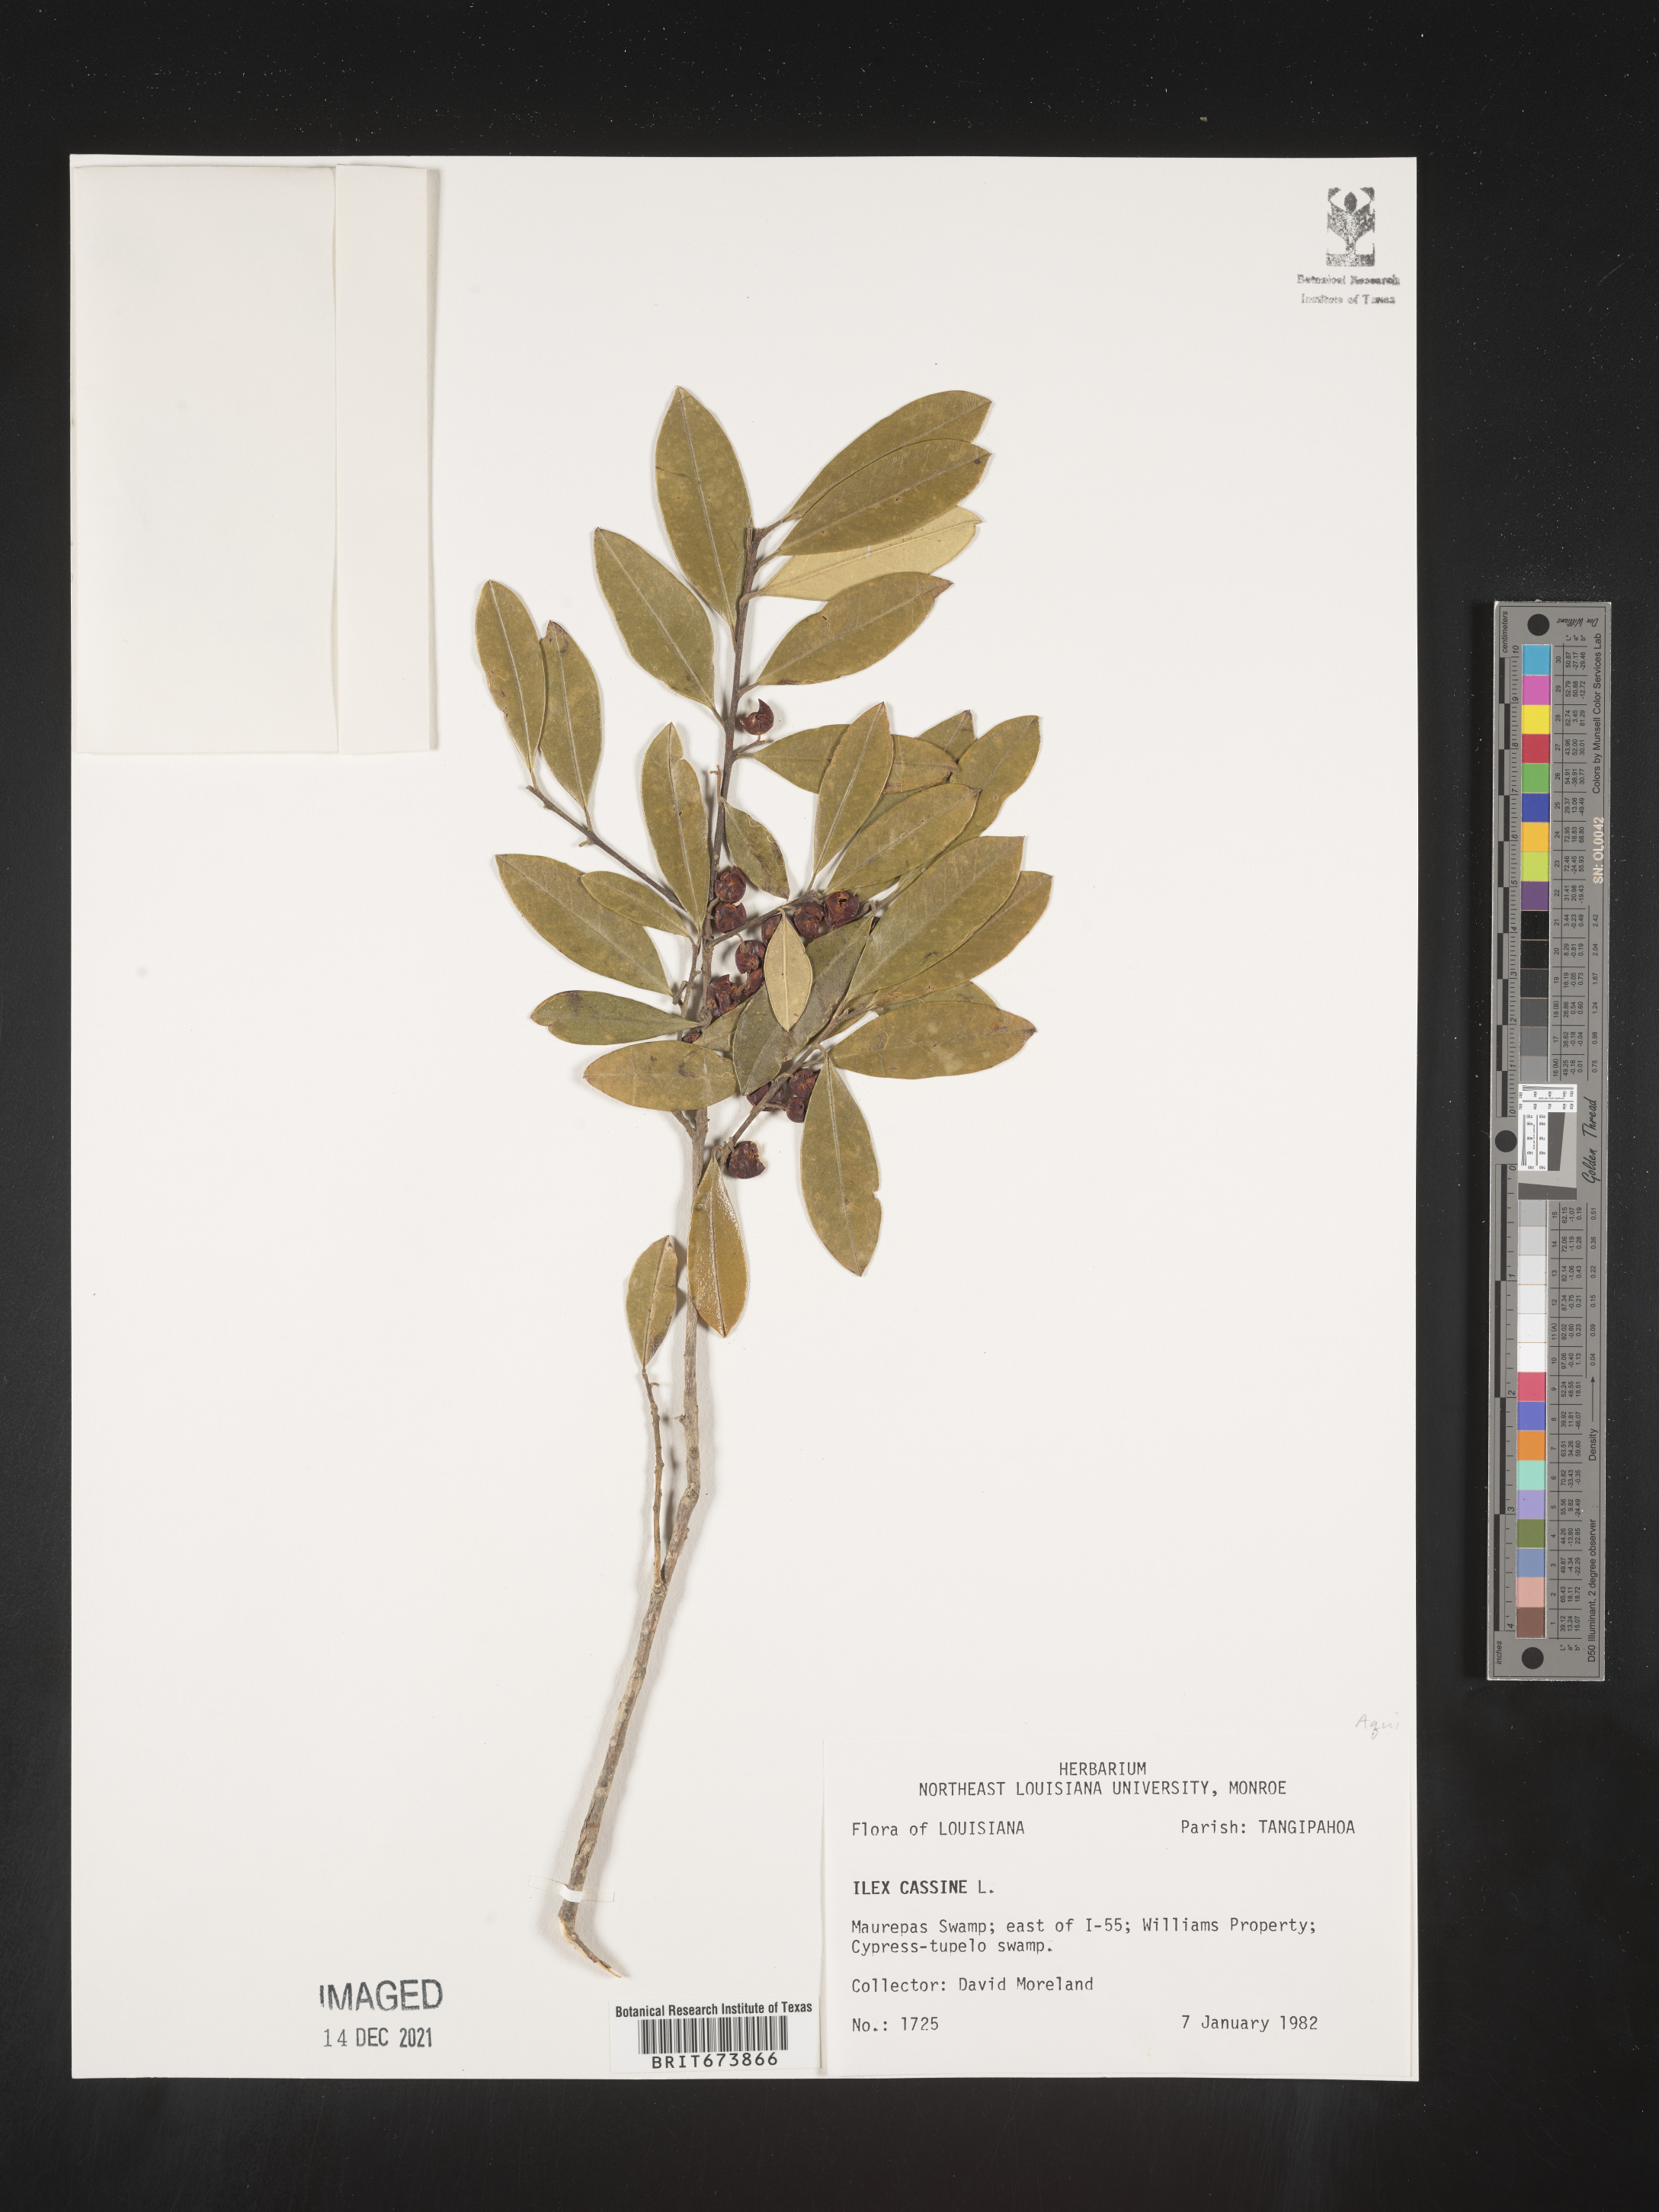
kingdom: Plantae
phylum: Tracheophyta
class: Magnoliopsida
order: Aquifoliales
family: Aquifoliaceae
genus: Ilex
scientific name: Ilex cassine
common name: Dahoon
